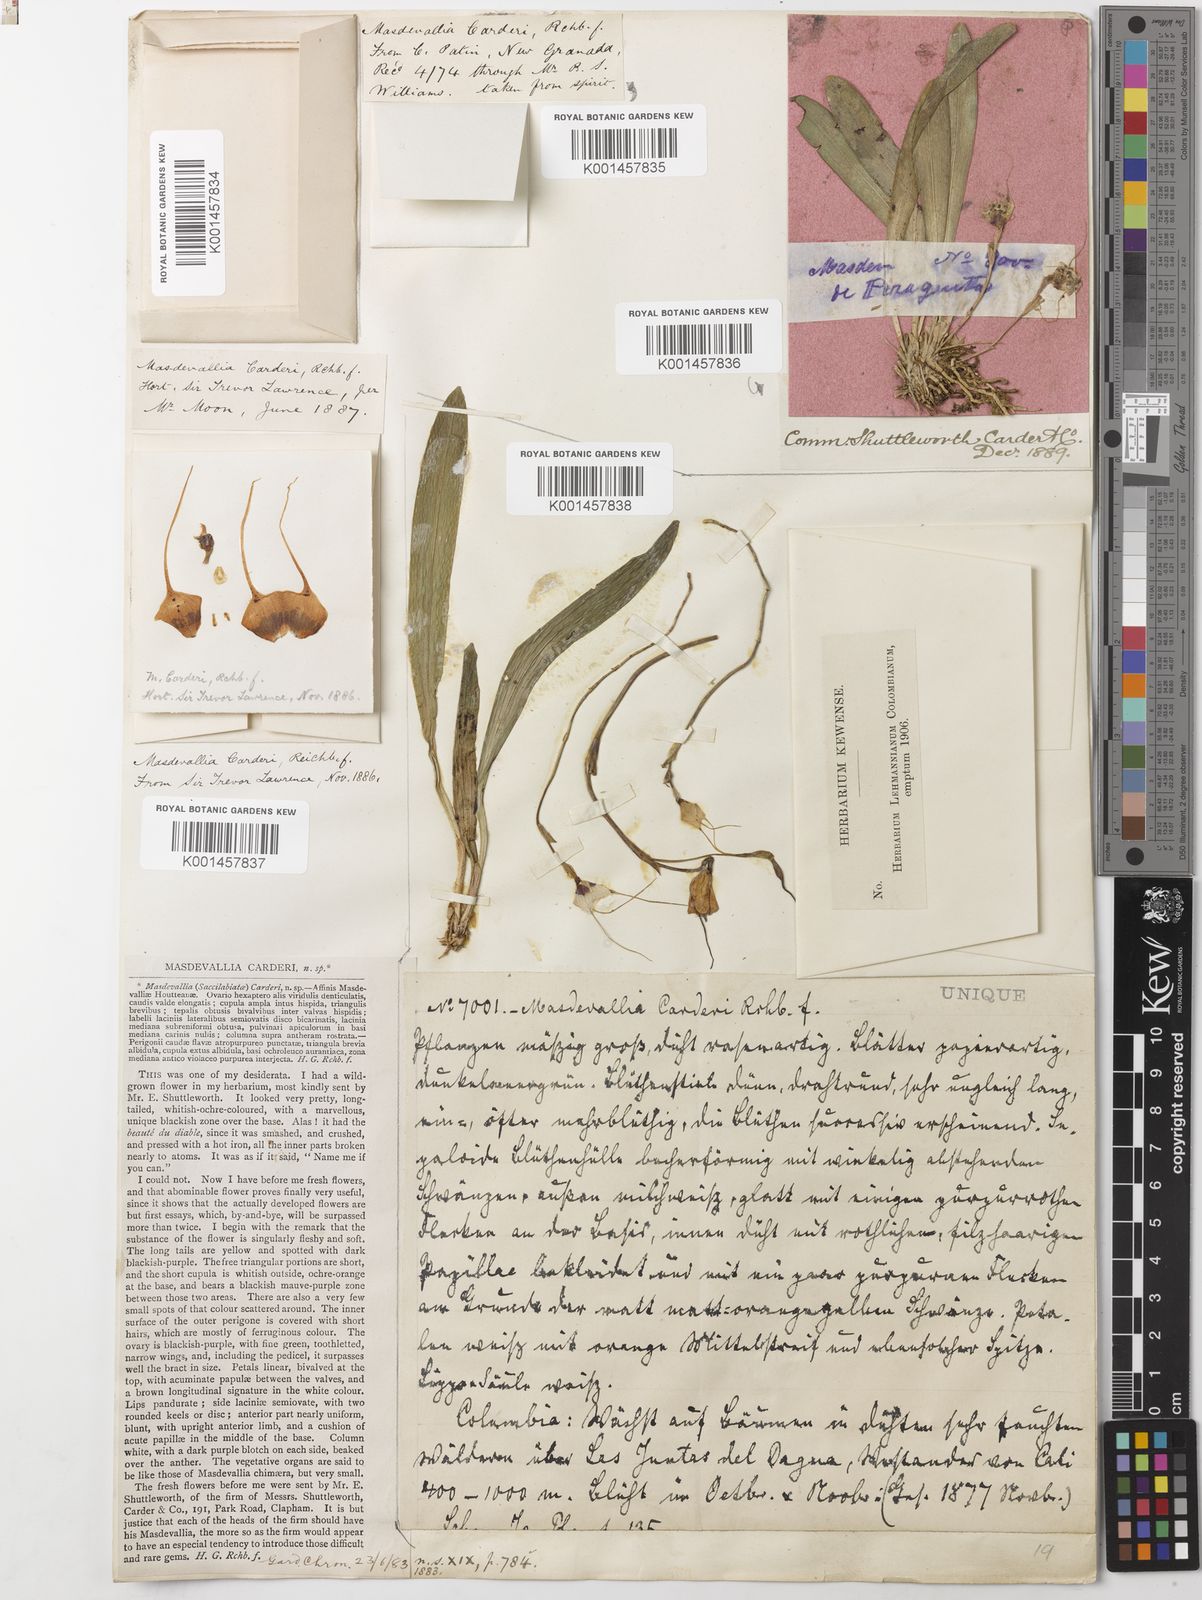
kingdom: Plantae
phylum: Tracheophyta
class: Liliopsida
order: Asparagales
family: Orchidaceae
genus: Dracula
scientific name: Dracula inaequalis
